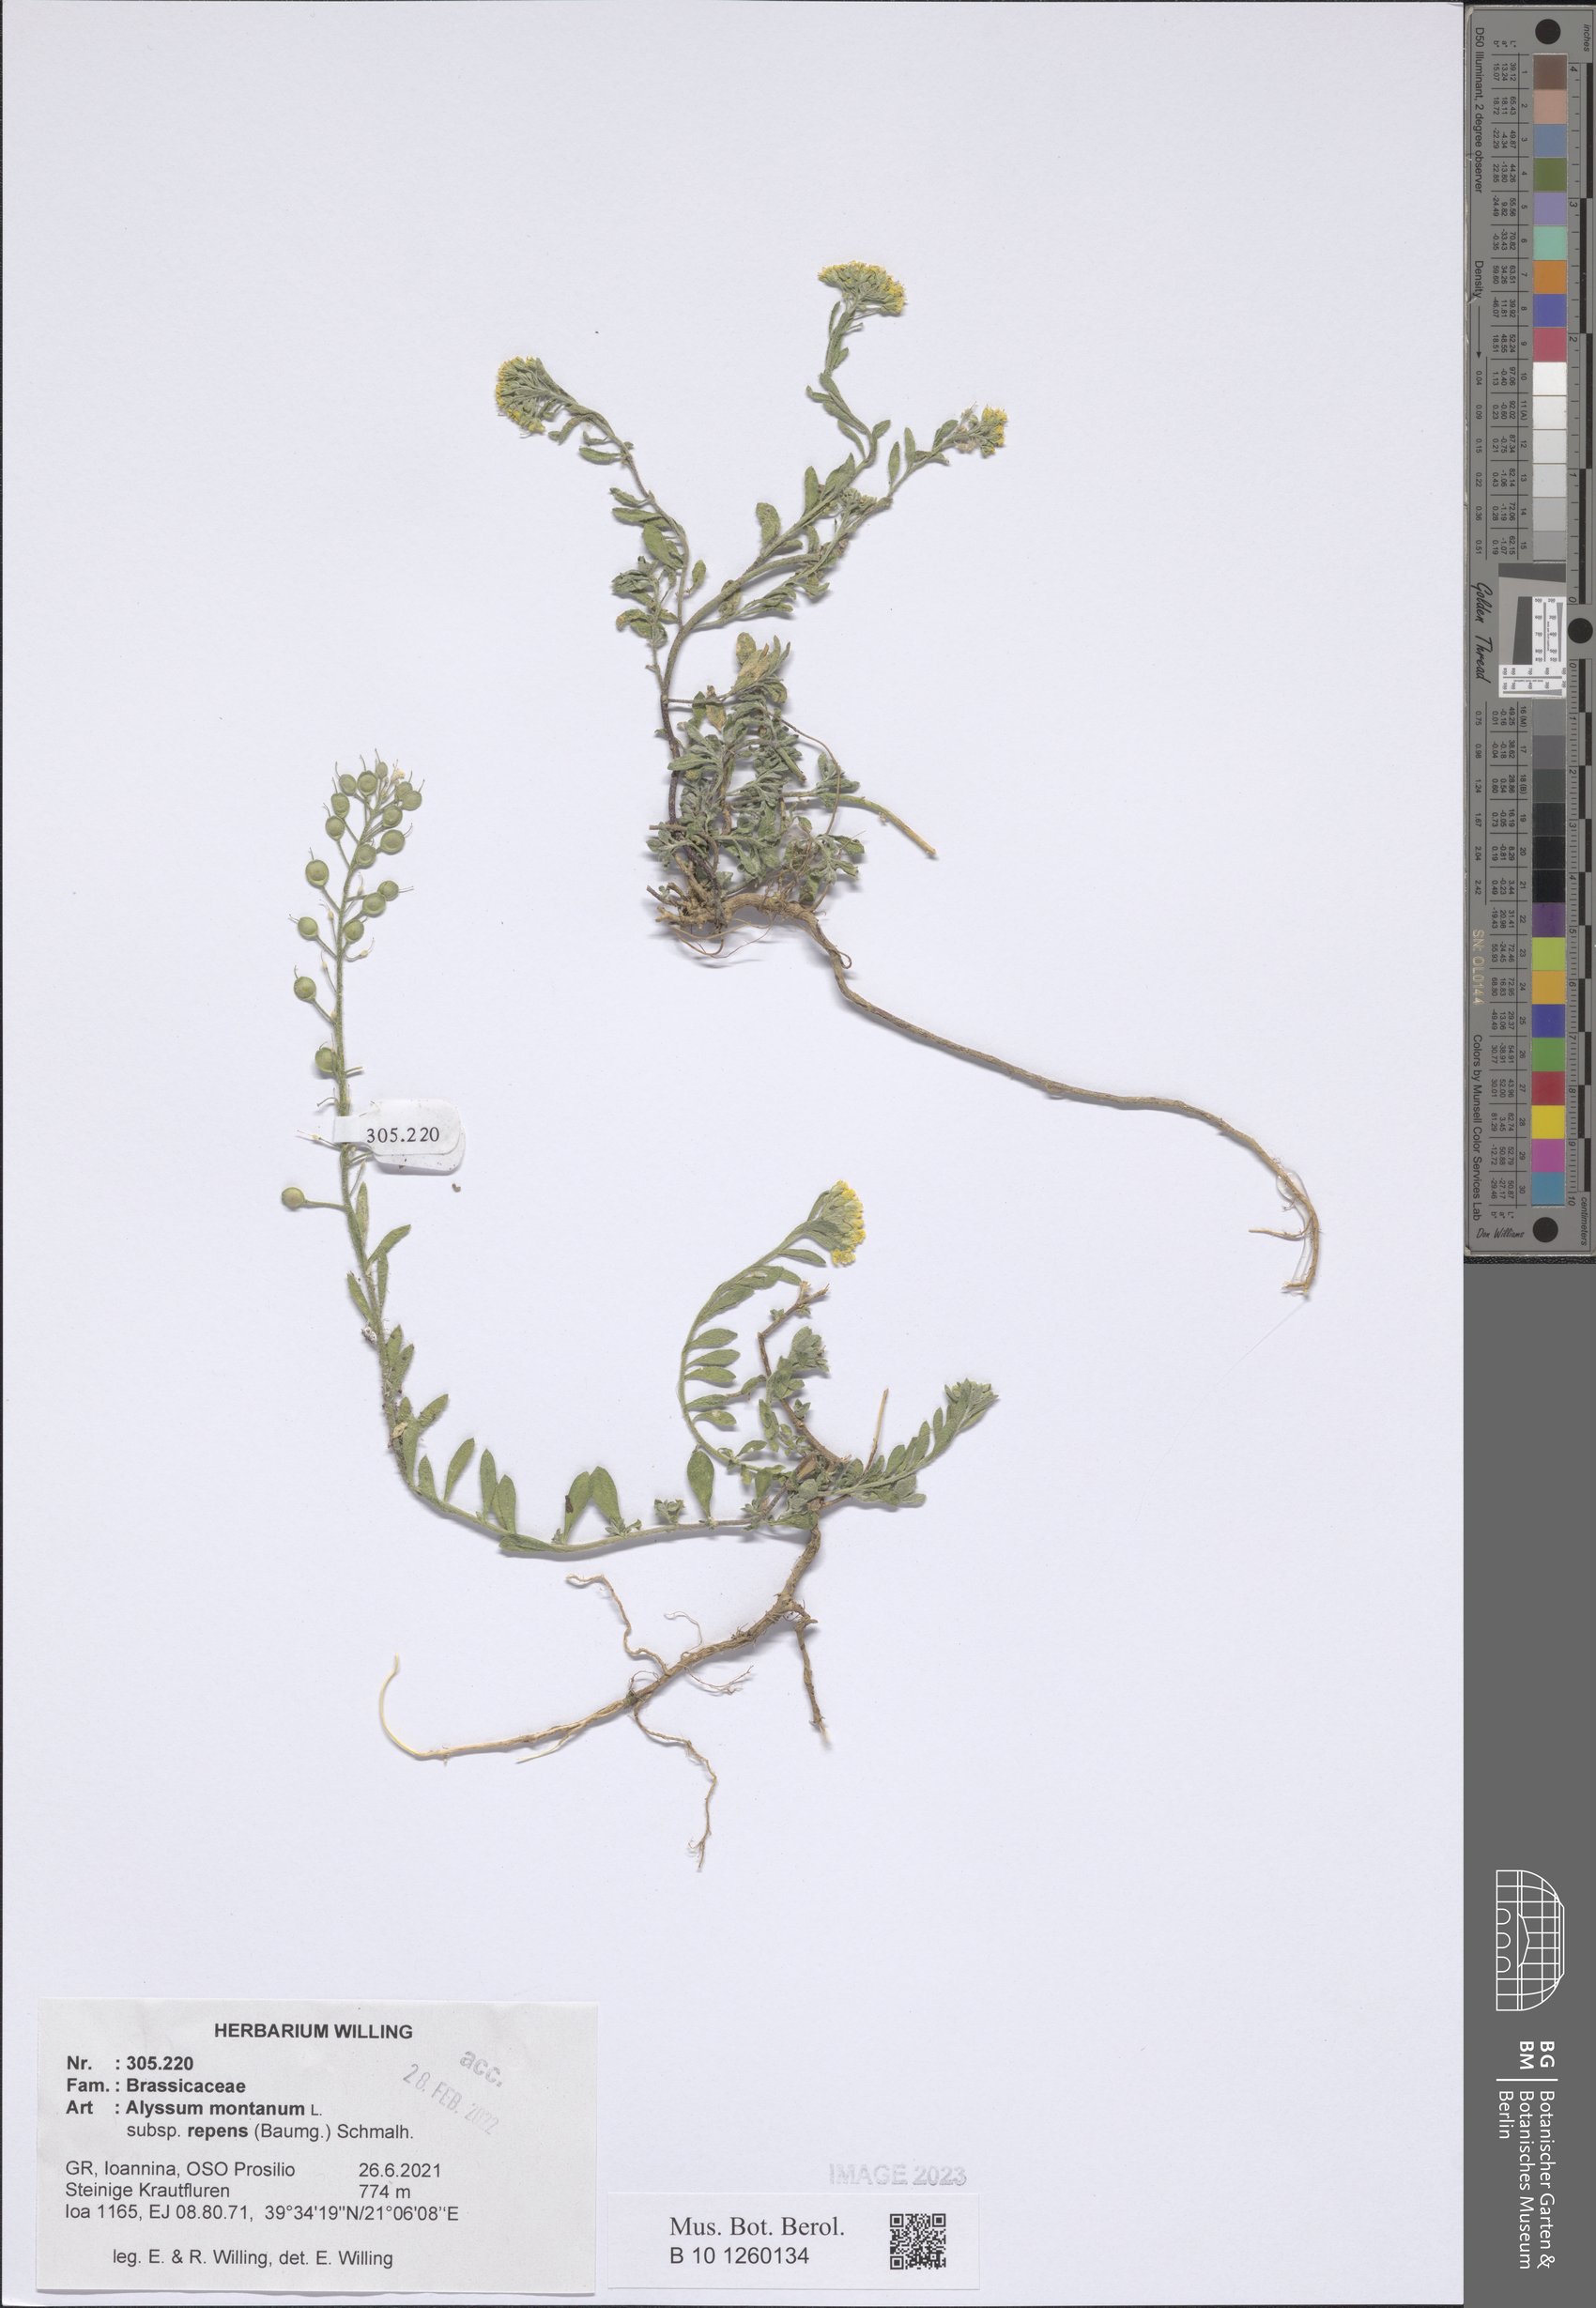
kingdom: Plantae
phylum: Tracheophyta
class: Magnoliopsida
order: Brassicales
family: Brassicaceae
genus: Alyssum
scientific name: Alyssum trichostachyum
